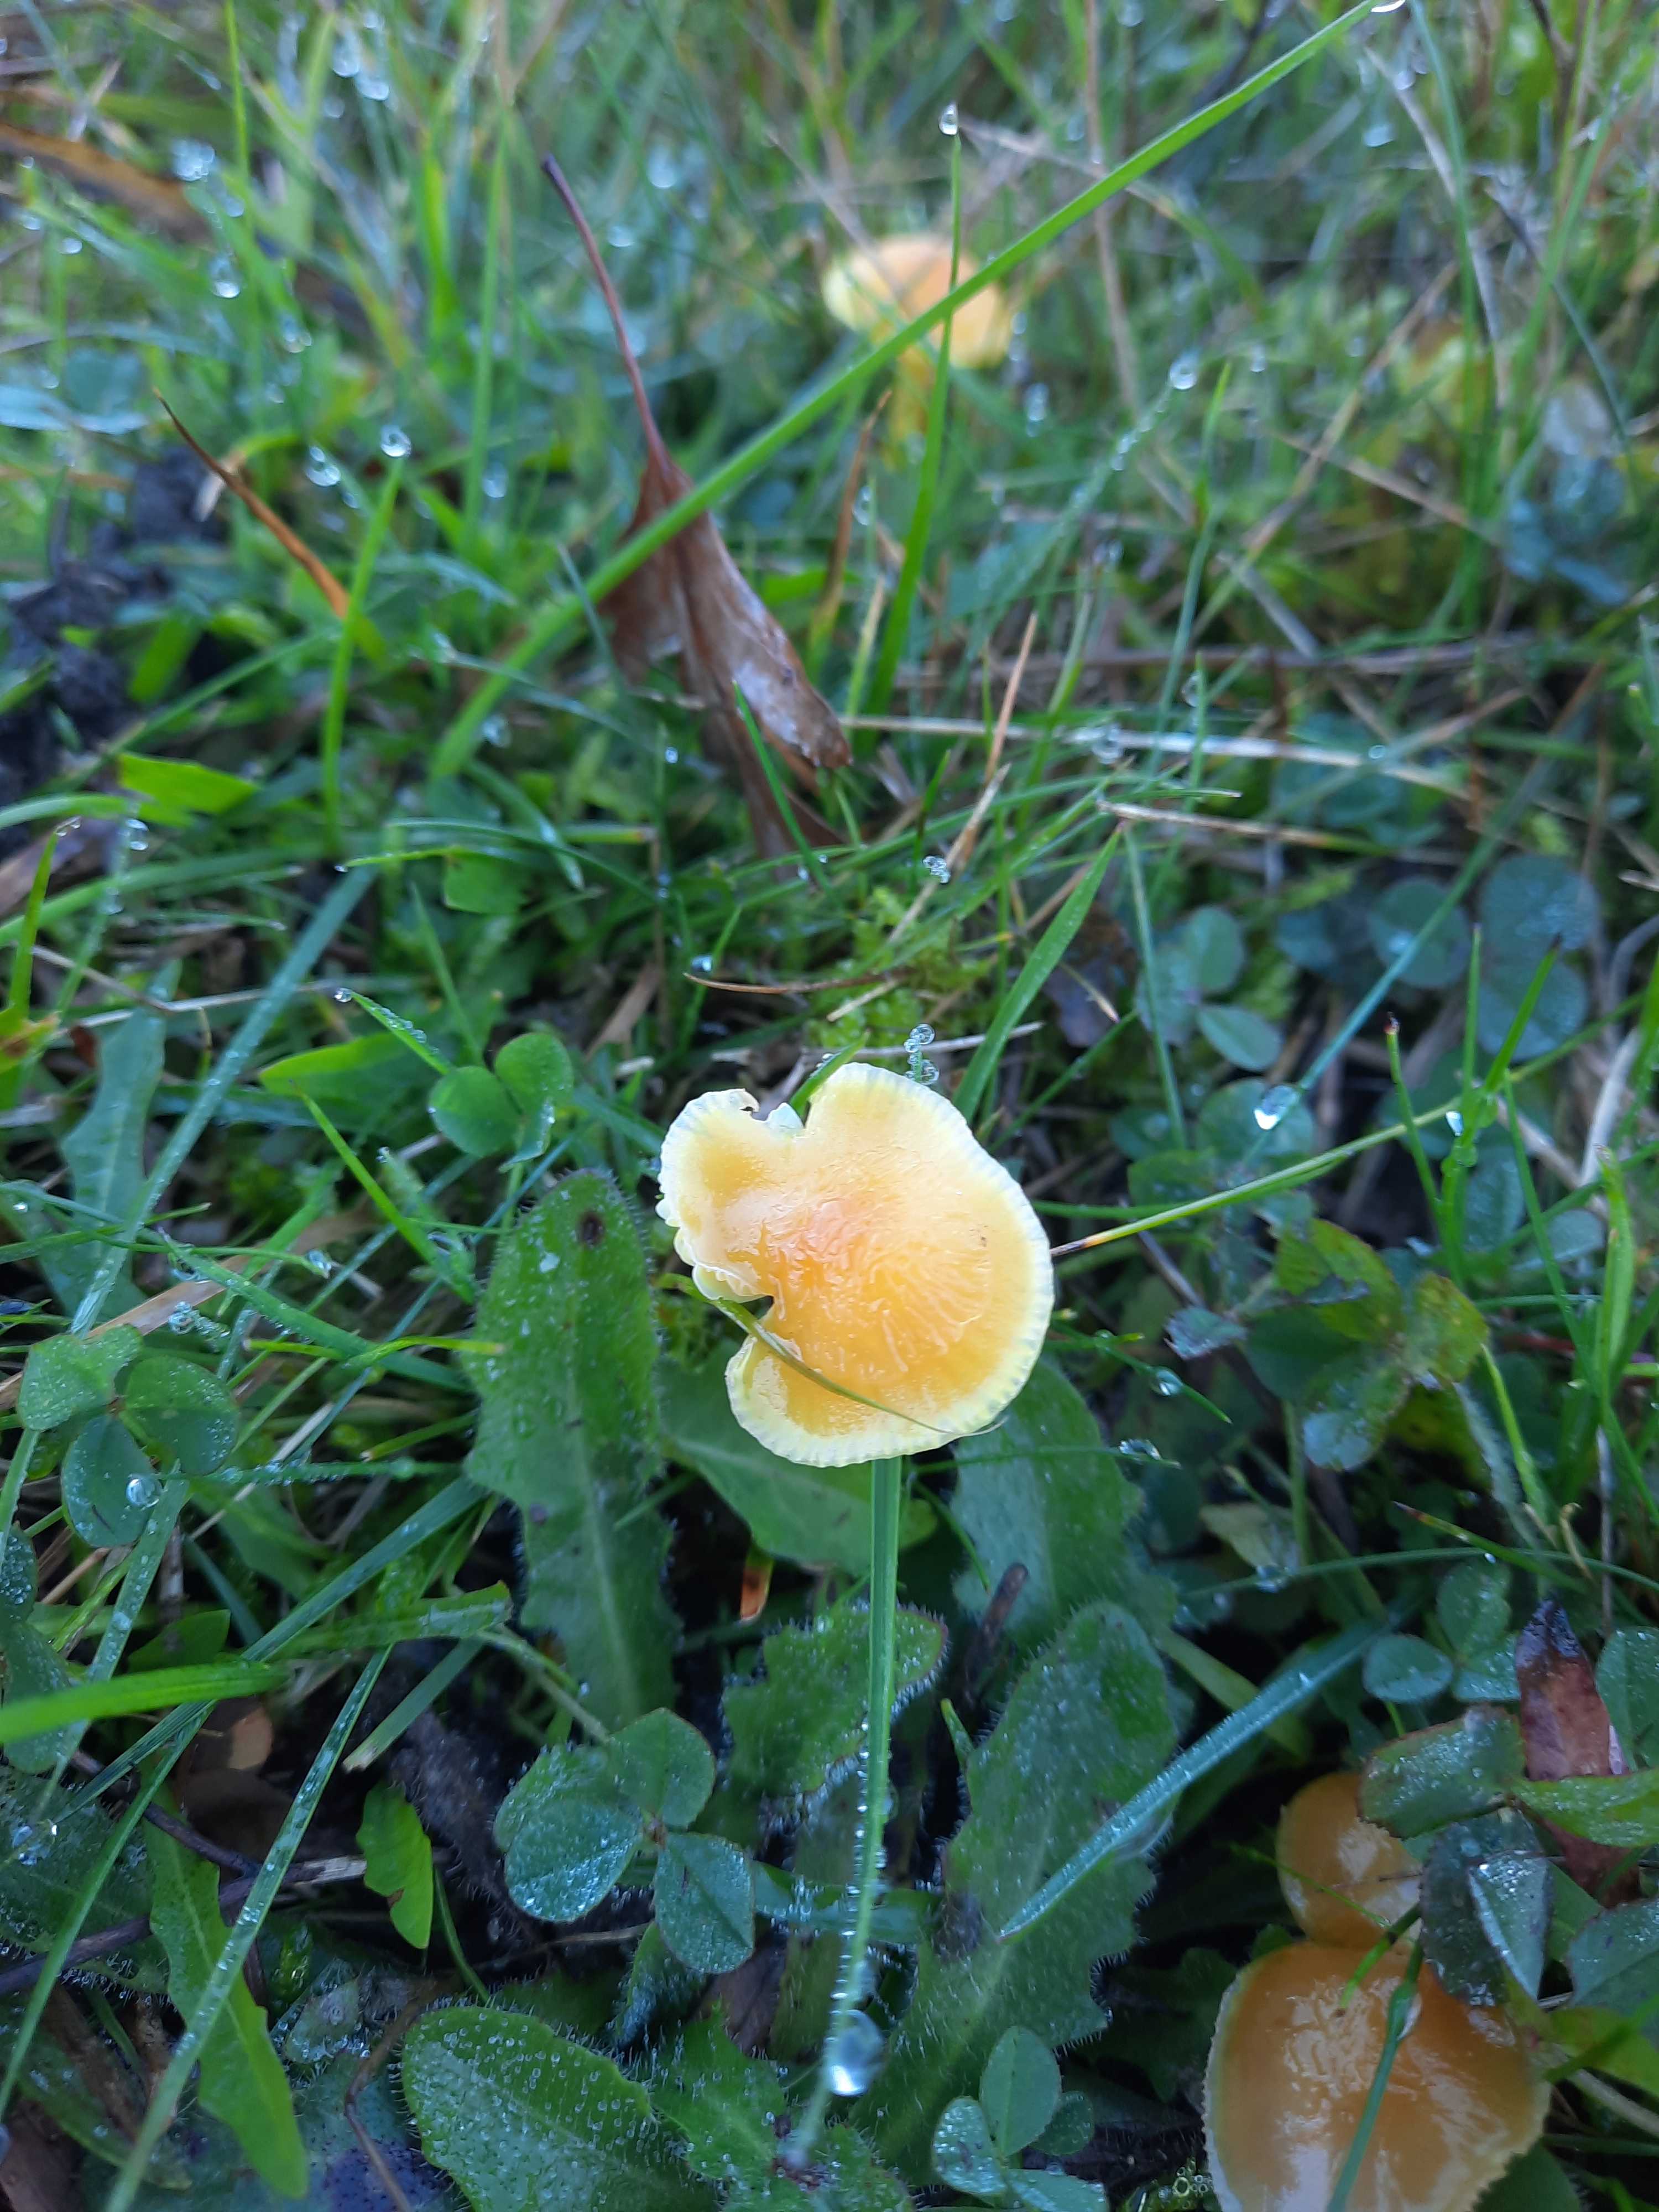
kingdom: Fungi
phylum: Basidiomycota
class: Agaricomycetes
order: Agaricales
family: Hygrophoraceae
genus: Hygrocybe
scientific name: Hygrocybe ceracea
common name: voksgul vokshat
